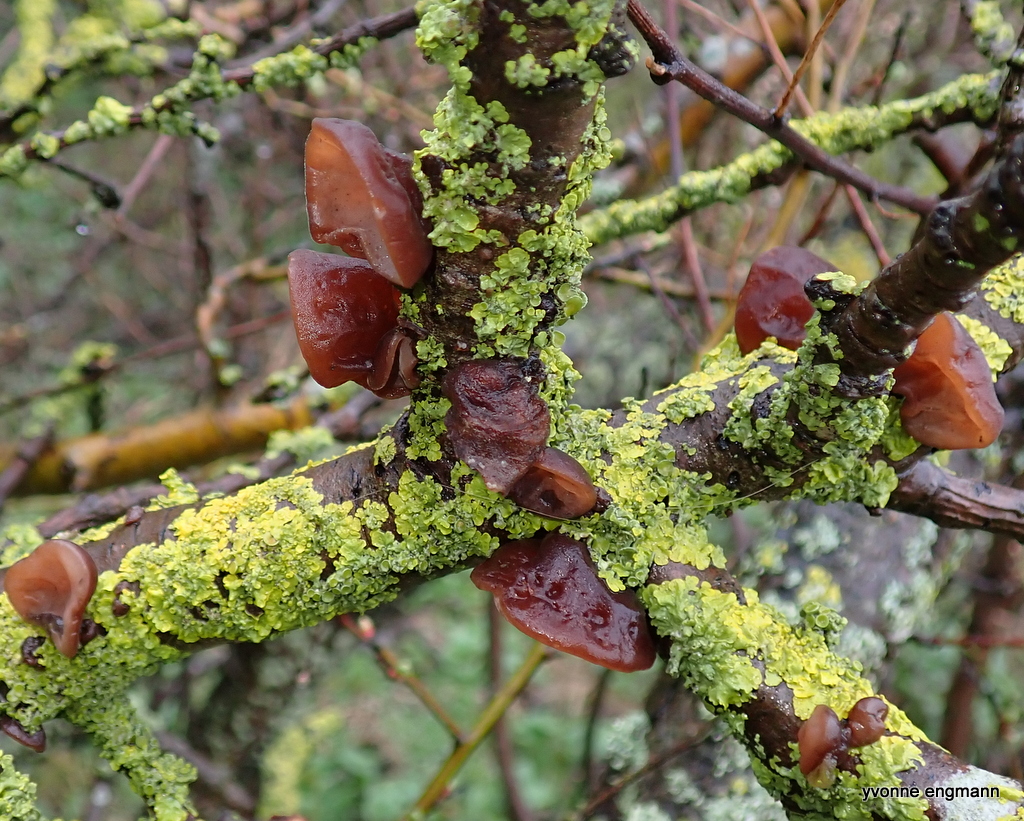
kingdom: Fungi
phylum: Basidiomycota
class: Agaricomycetes
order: Auriculariales
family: Auriculariaceae
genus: Auricularia
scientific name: Auricularia auricula-judae
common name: almindelig judasøre
